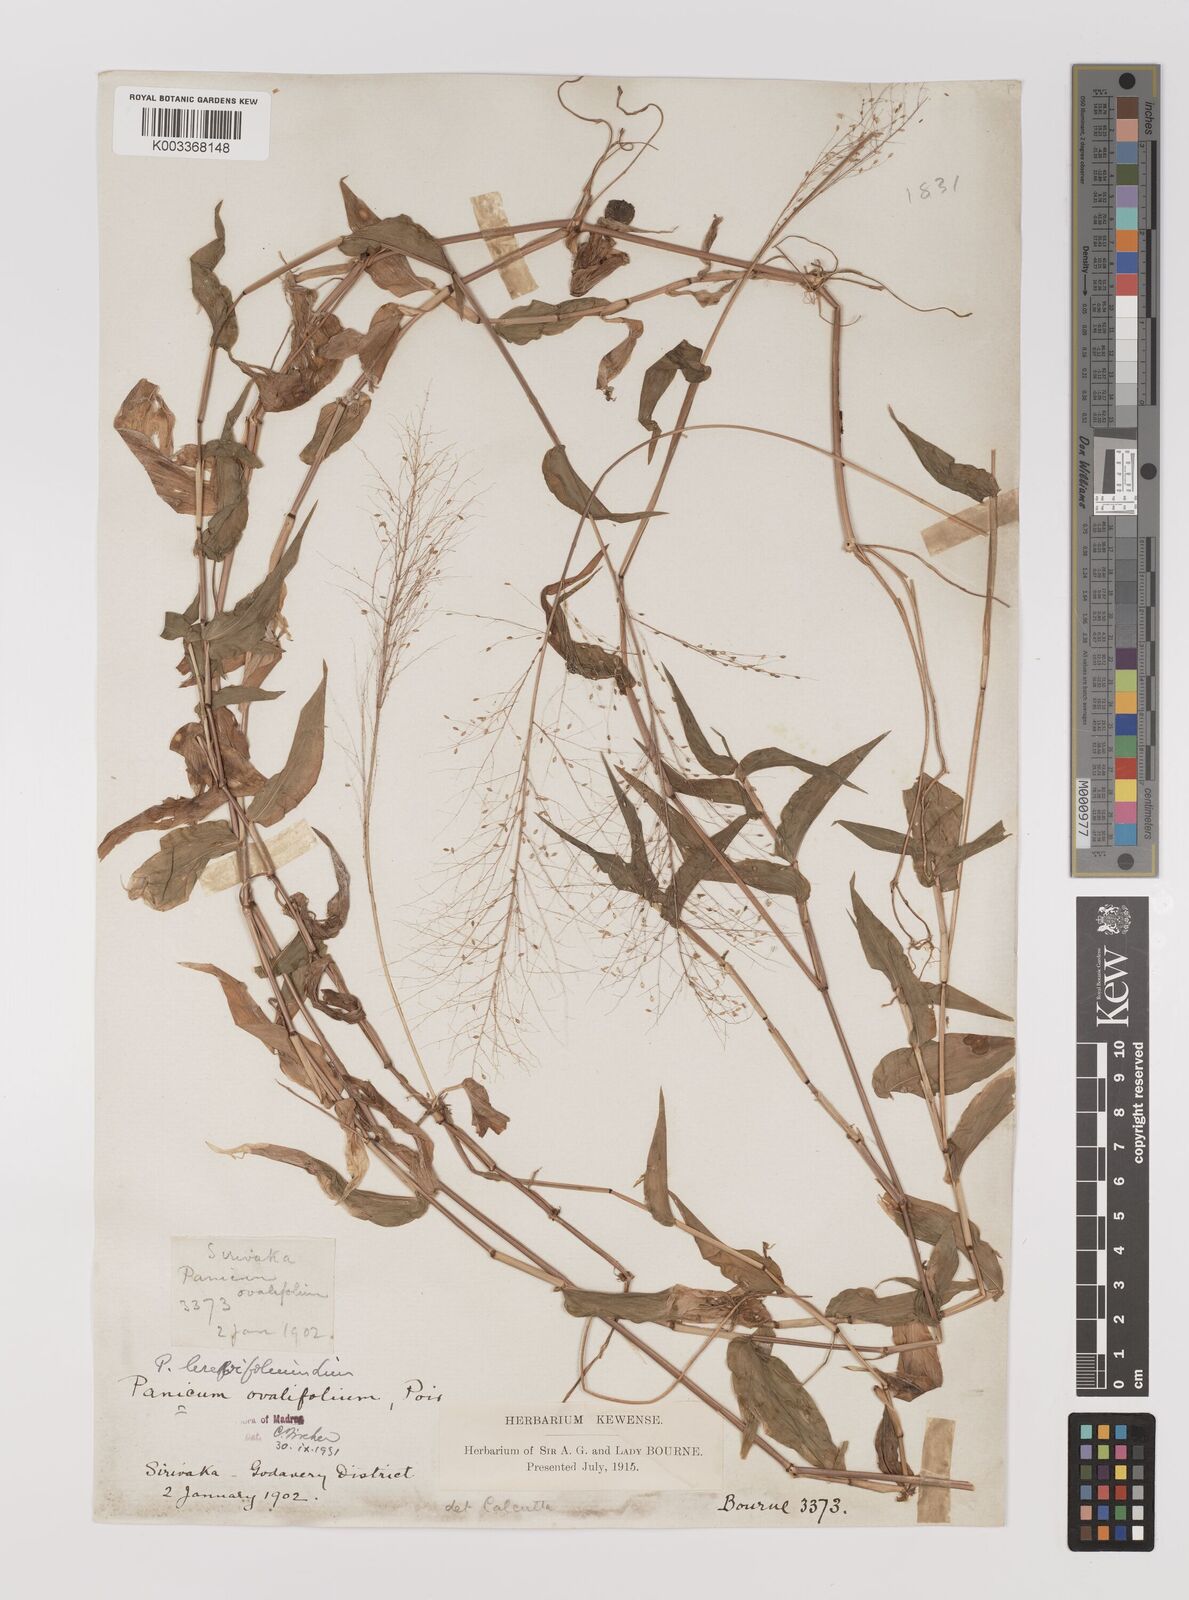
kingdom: Plantae
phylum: Tracheophyta
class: Liliopsida
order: Poales
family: Poaceae
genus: Panicum
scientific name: Panicum brevifolium
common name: Shortleaf panic grass
